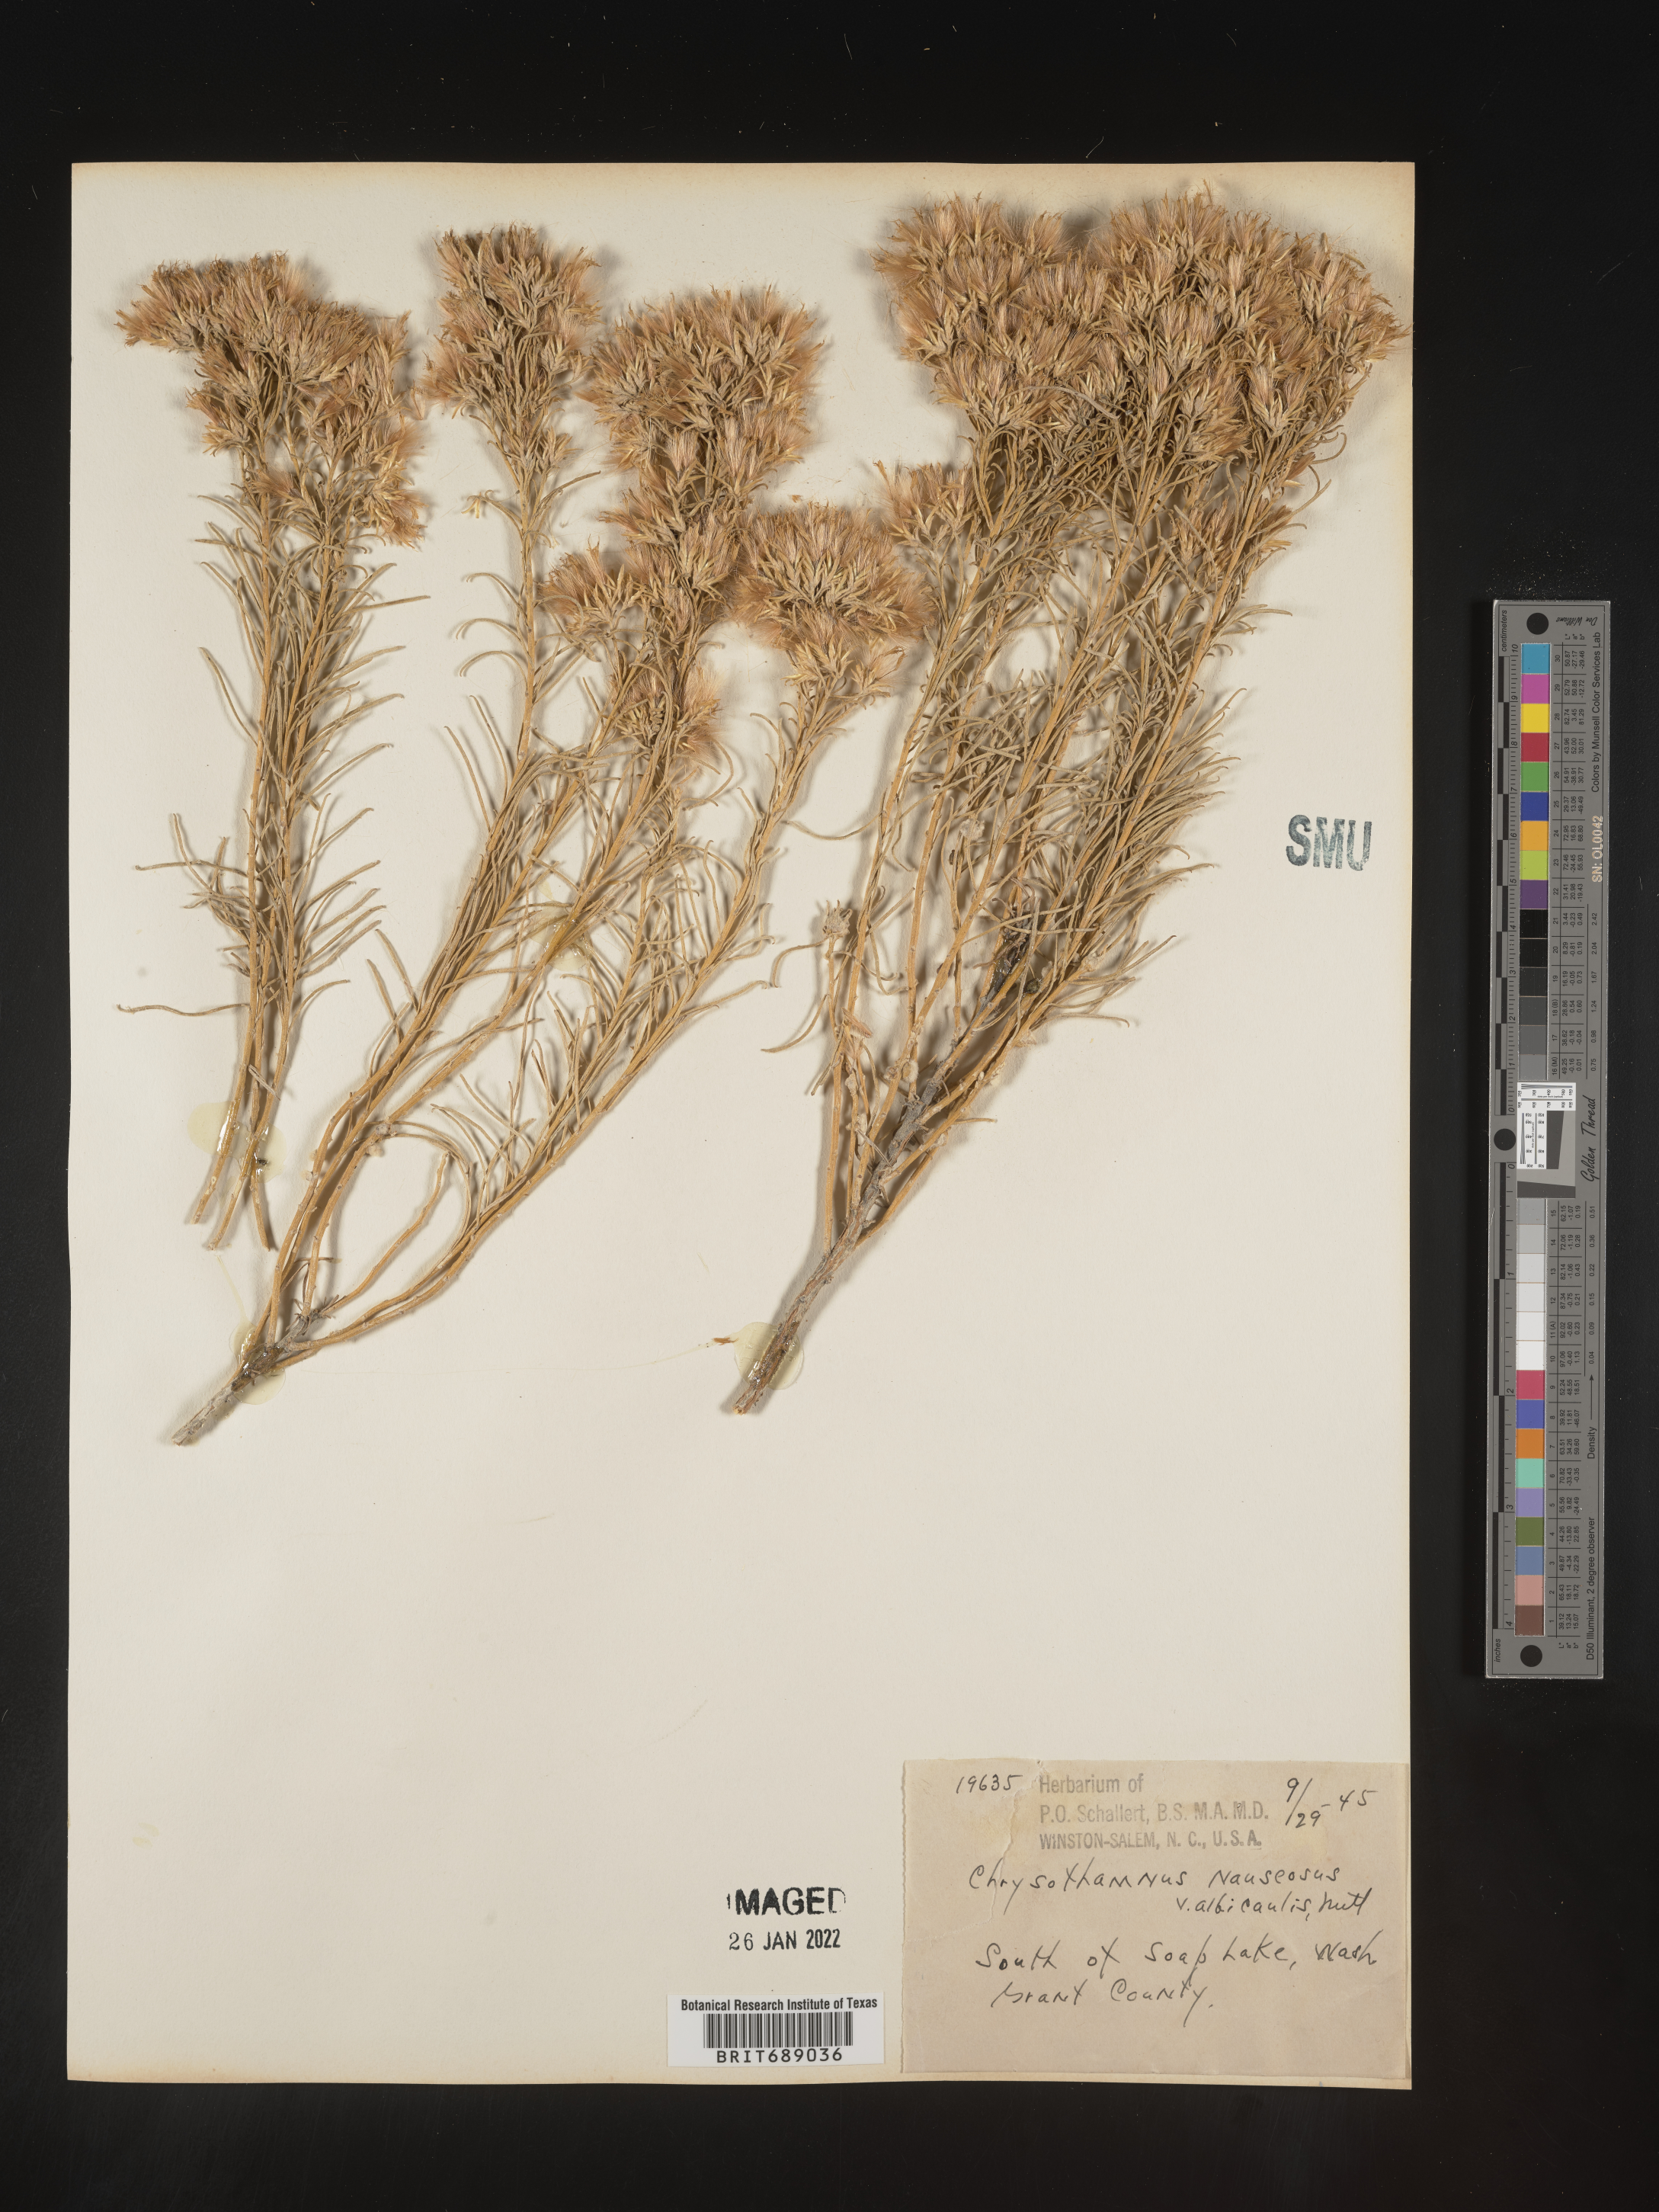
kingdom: Plantae
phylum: Tracheophyta
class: Magnoliopsida
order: Asterales
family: Asteraceae
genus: Ericameria
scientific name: Ericameria nauseosa
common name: Rubber rabbitbrush
